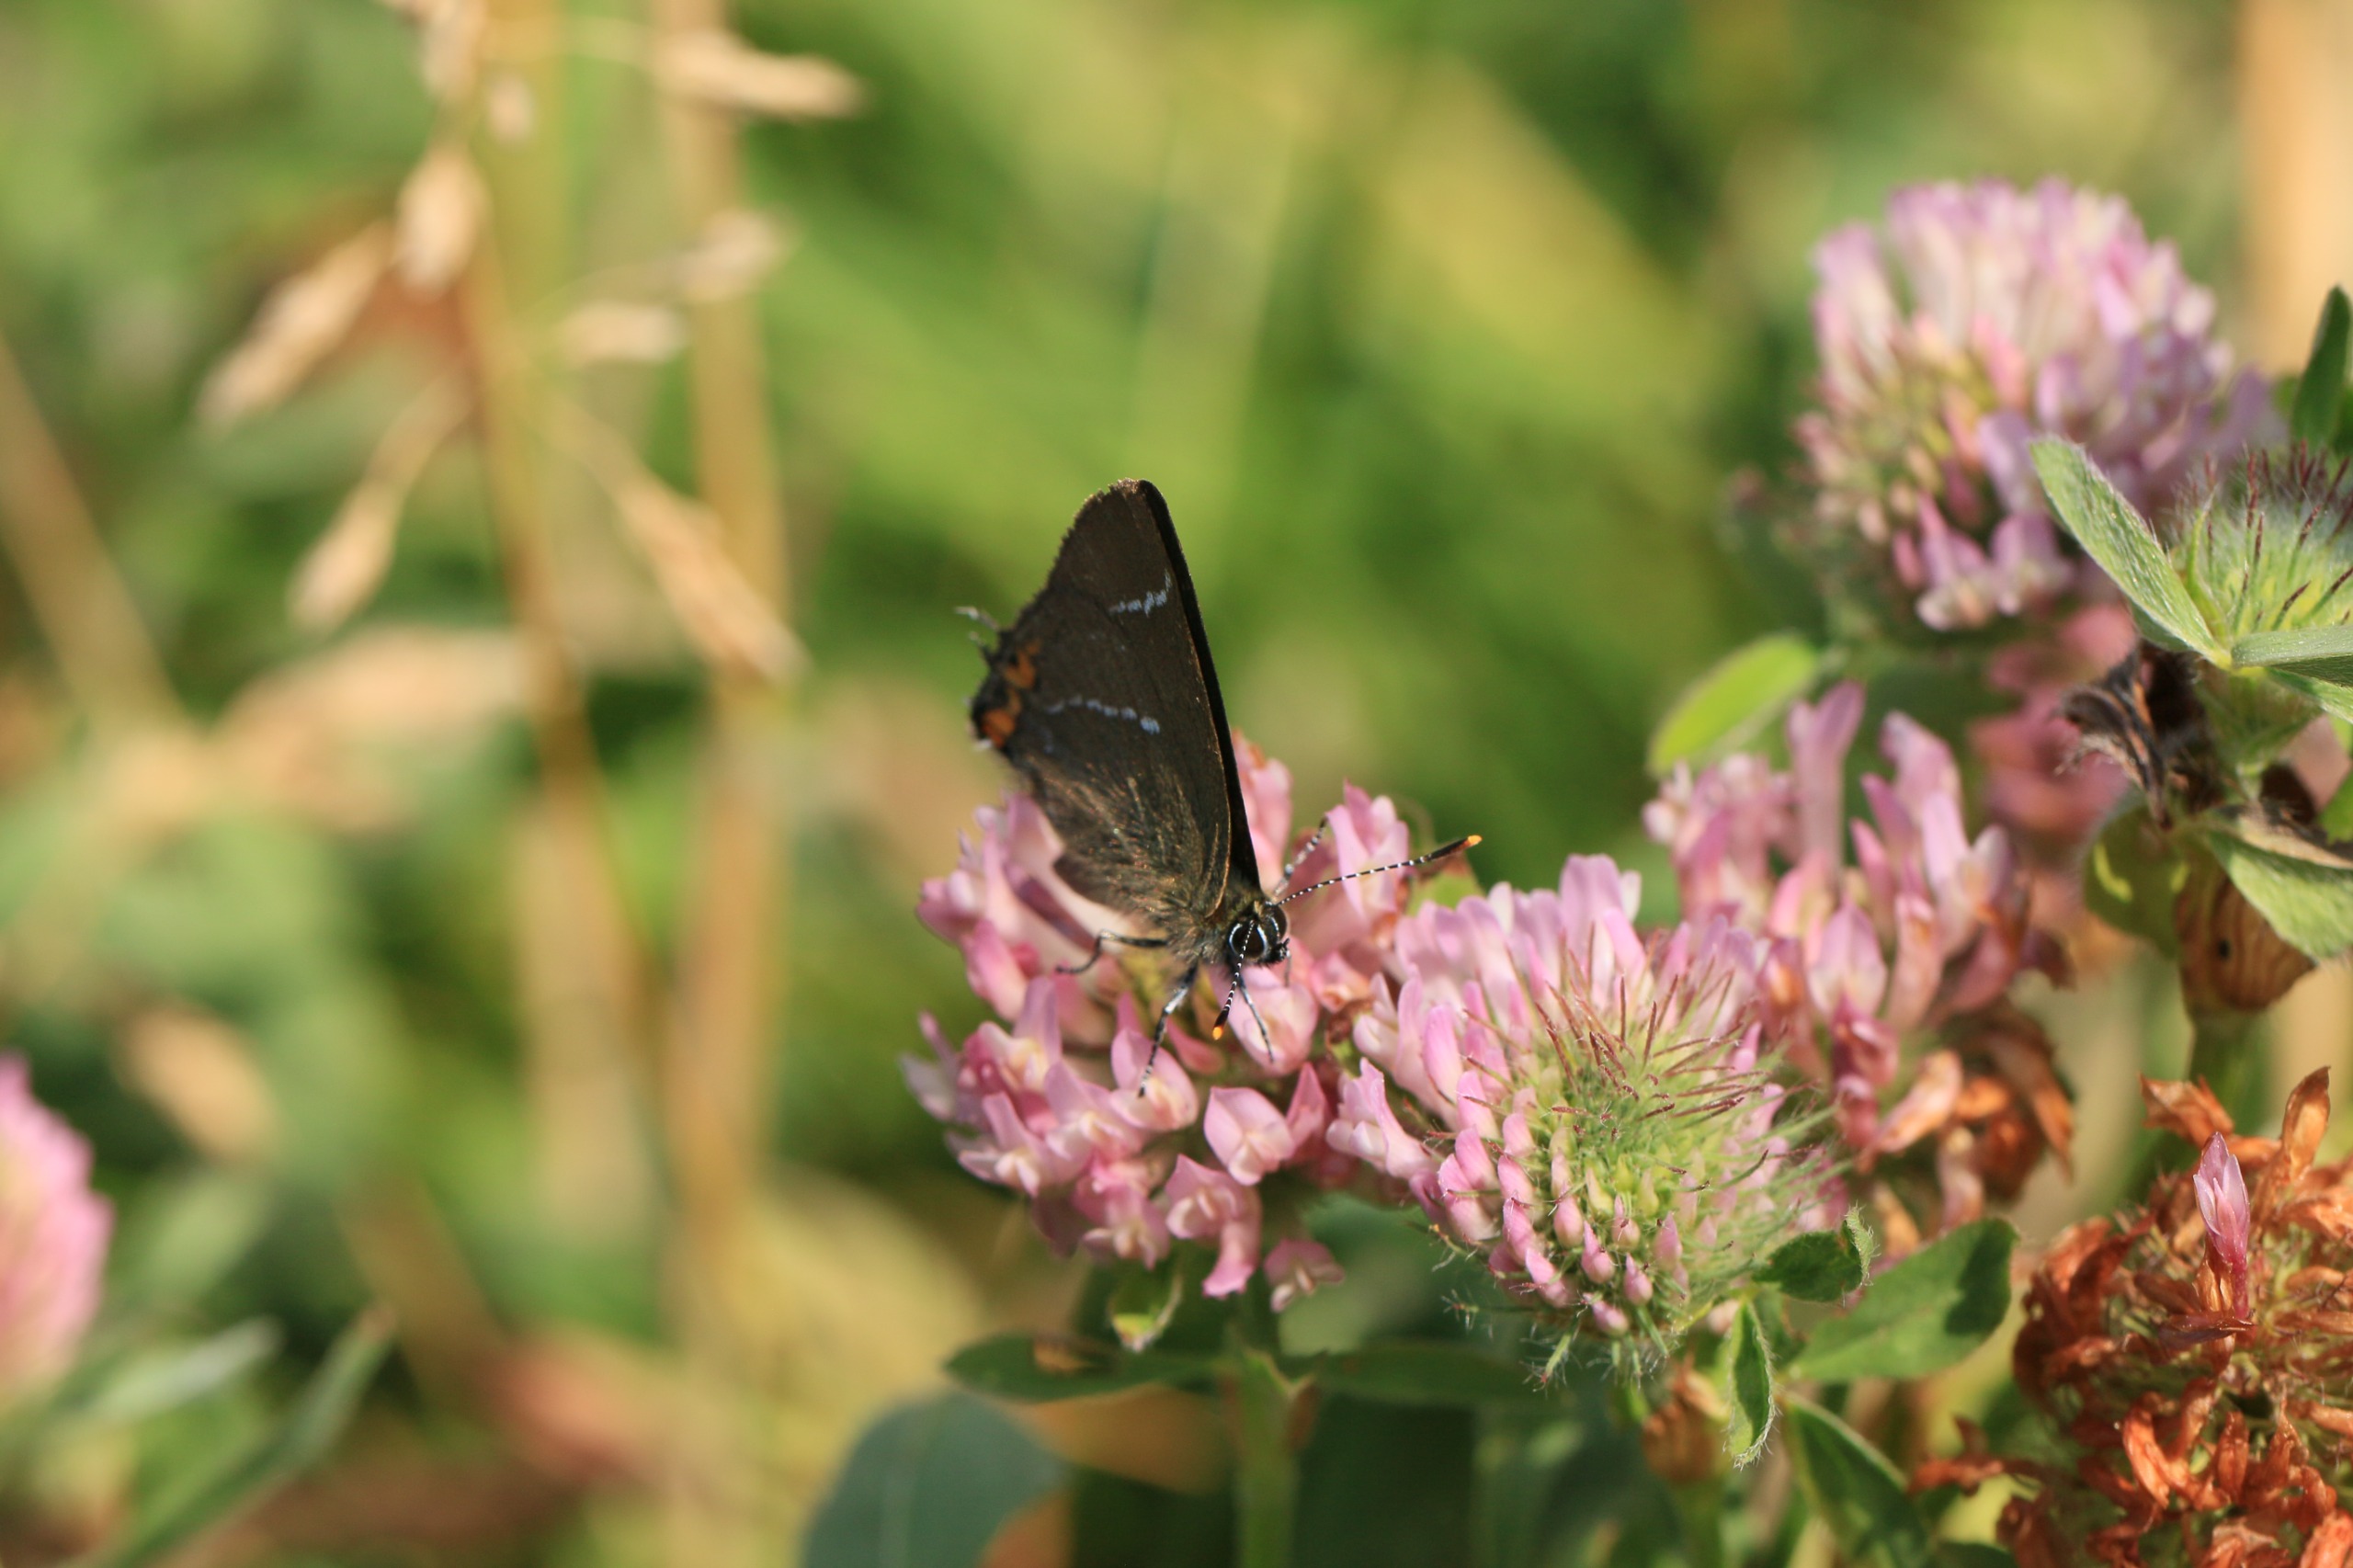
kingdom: Animalia
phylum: Arthropoda
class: Insecta
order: Lepidoptera
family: Lycaenidae
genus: Satyrium
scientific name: Satyrium w-album
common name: Det hvide W
